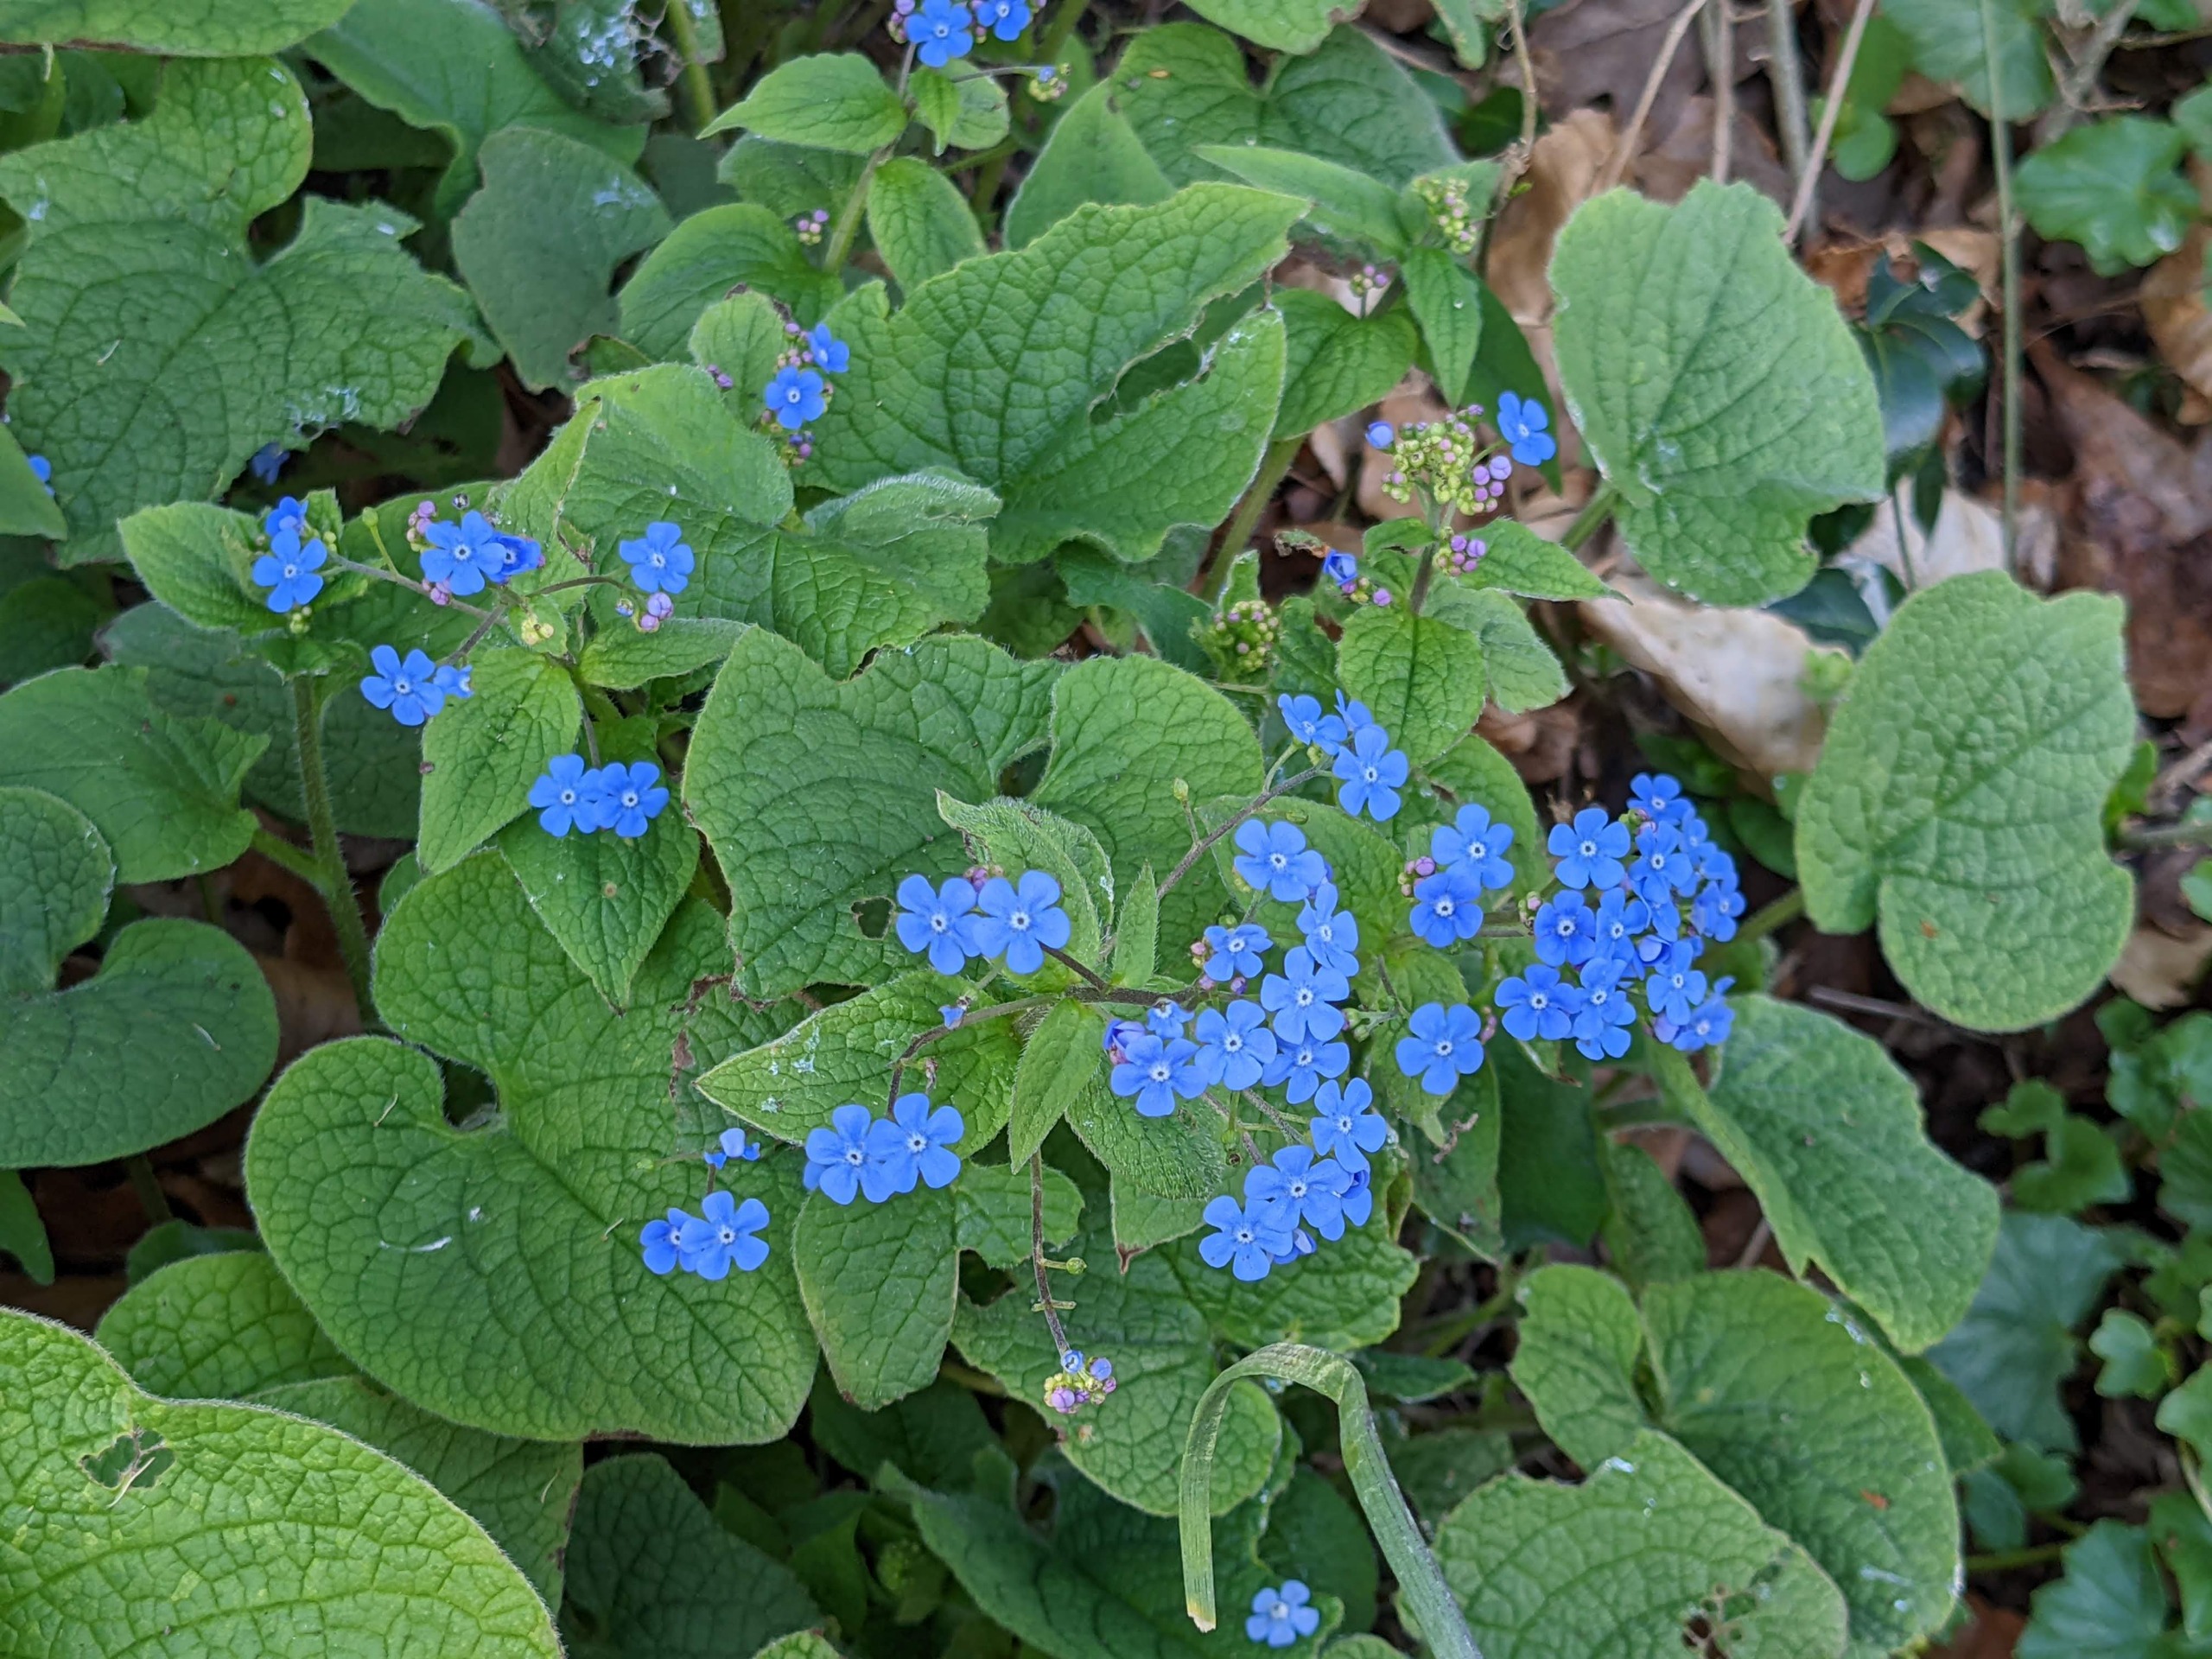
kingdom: Plantae
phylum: Tracheophyta
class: Magnoliopsida
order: Boraginales
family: Boraginaceae
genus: Brunnera
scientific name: Brunnera macrophylla
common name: Kærmindesøster
